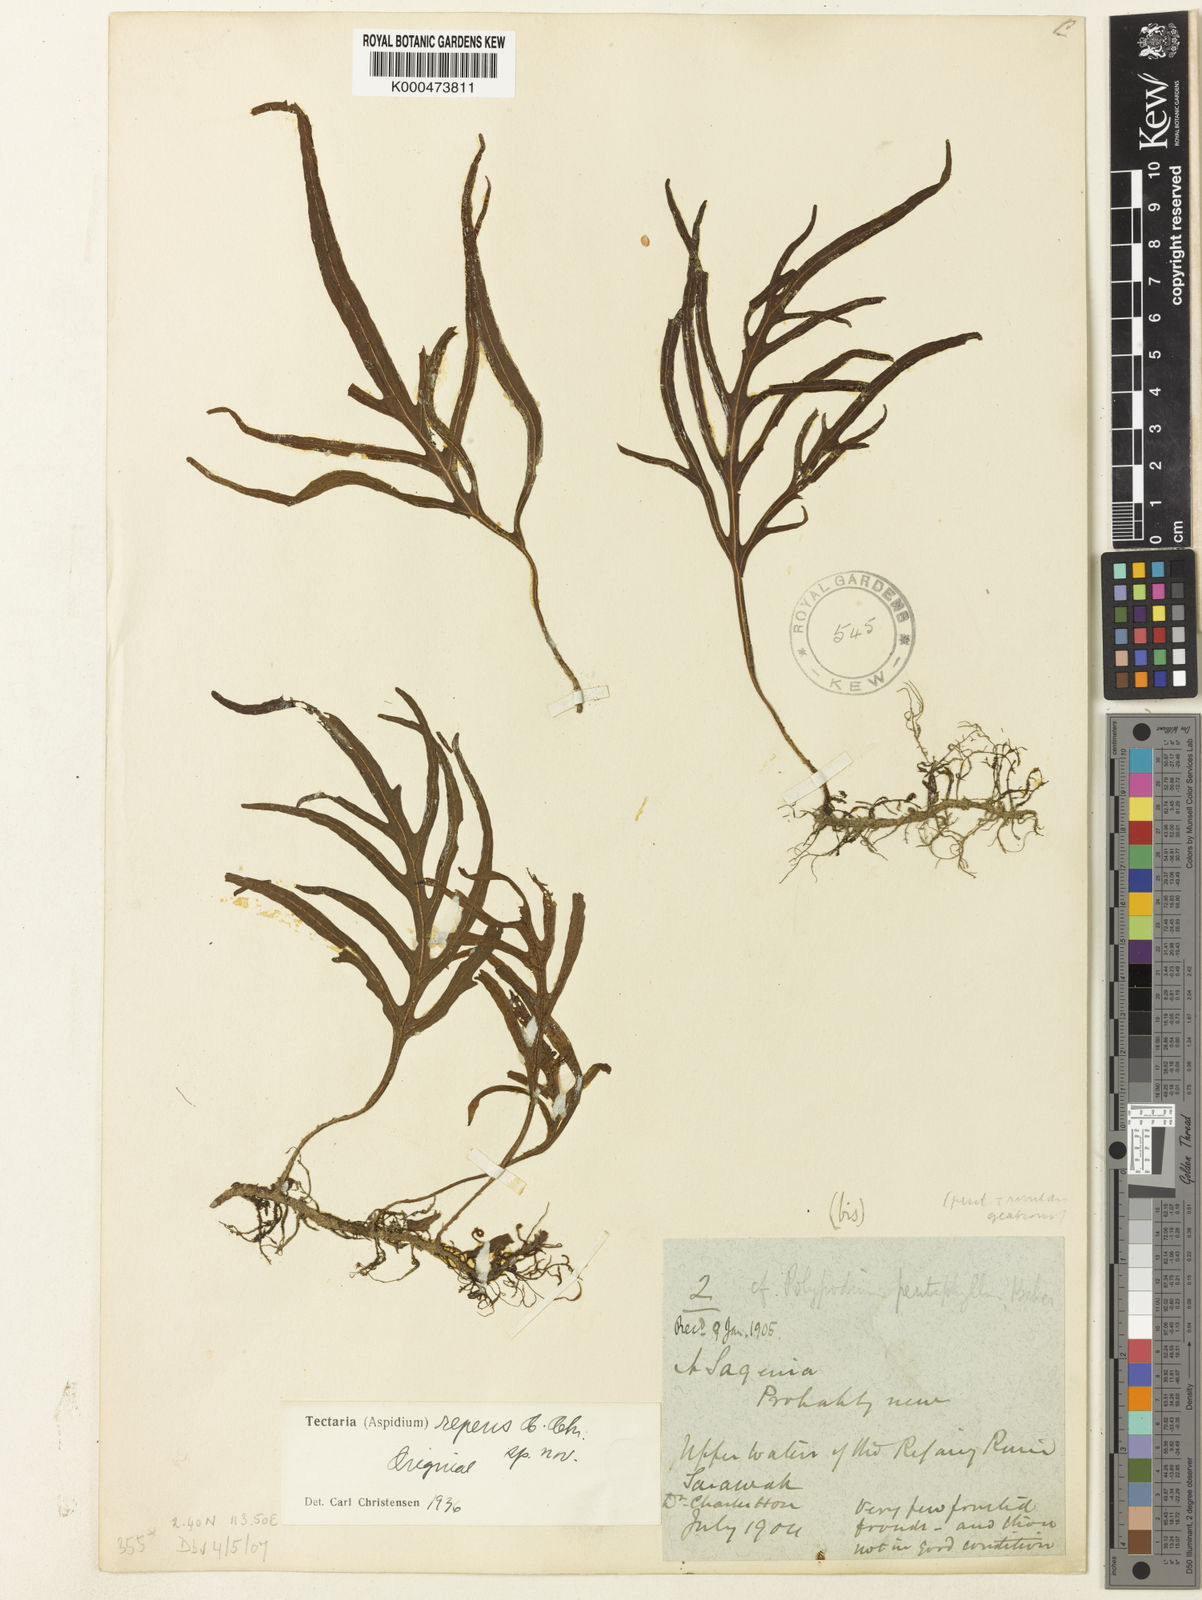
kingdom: Plantae
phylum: Tracheophyta
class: Polypodiopsida
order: Polypodiales
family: Tectariaceae
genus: Tectaria
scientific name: Tectaria repens
